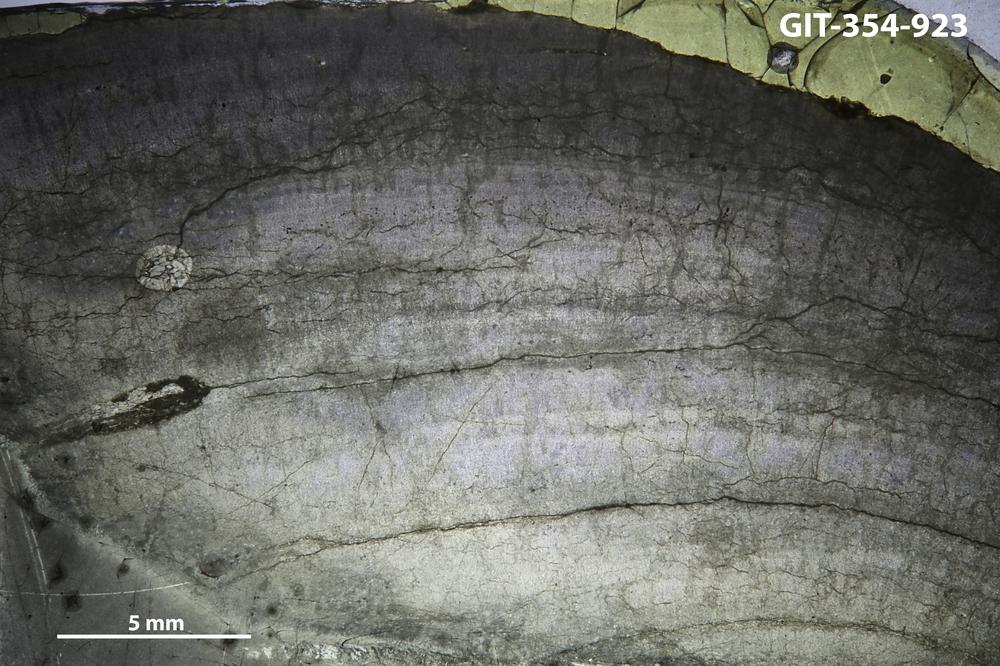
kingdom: Animalia
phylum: Porifera
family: Densastromatidae
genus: Densastroma
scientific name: Densastroma Actinostroma pexisum
